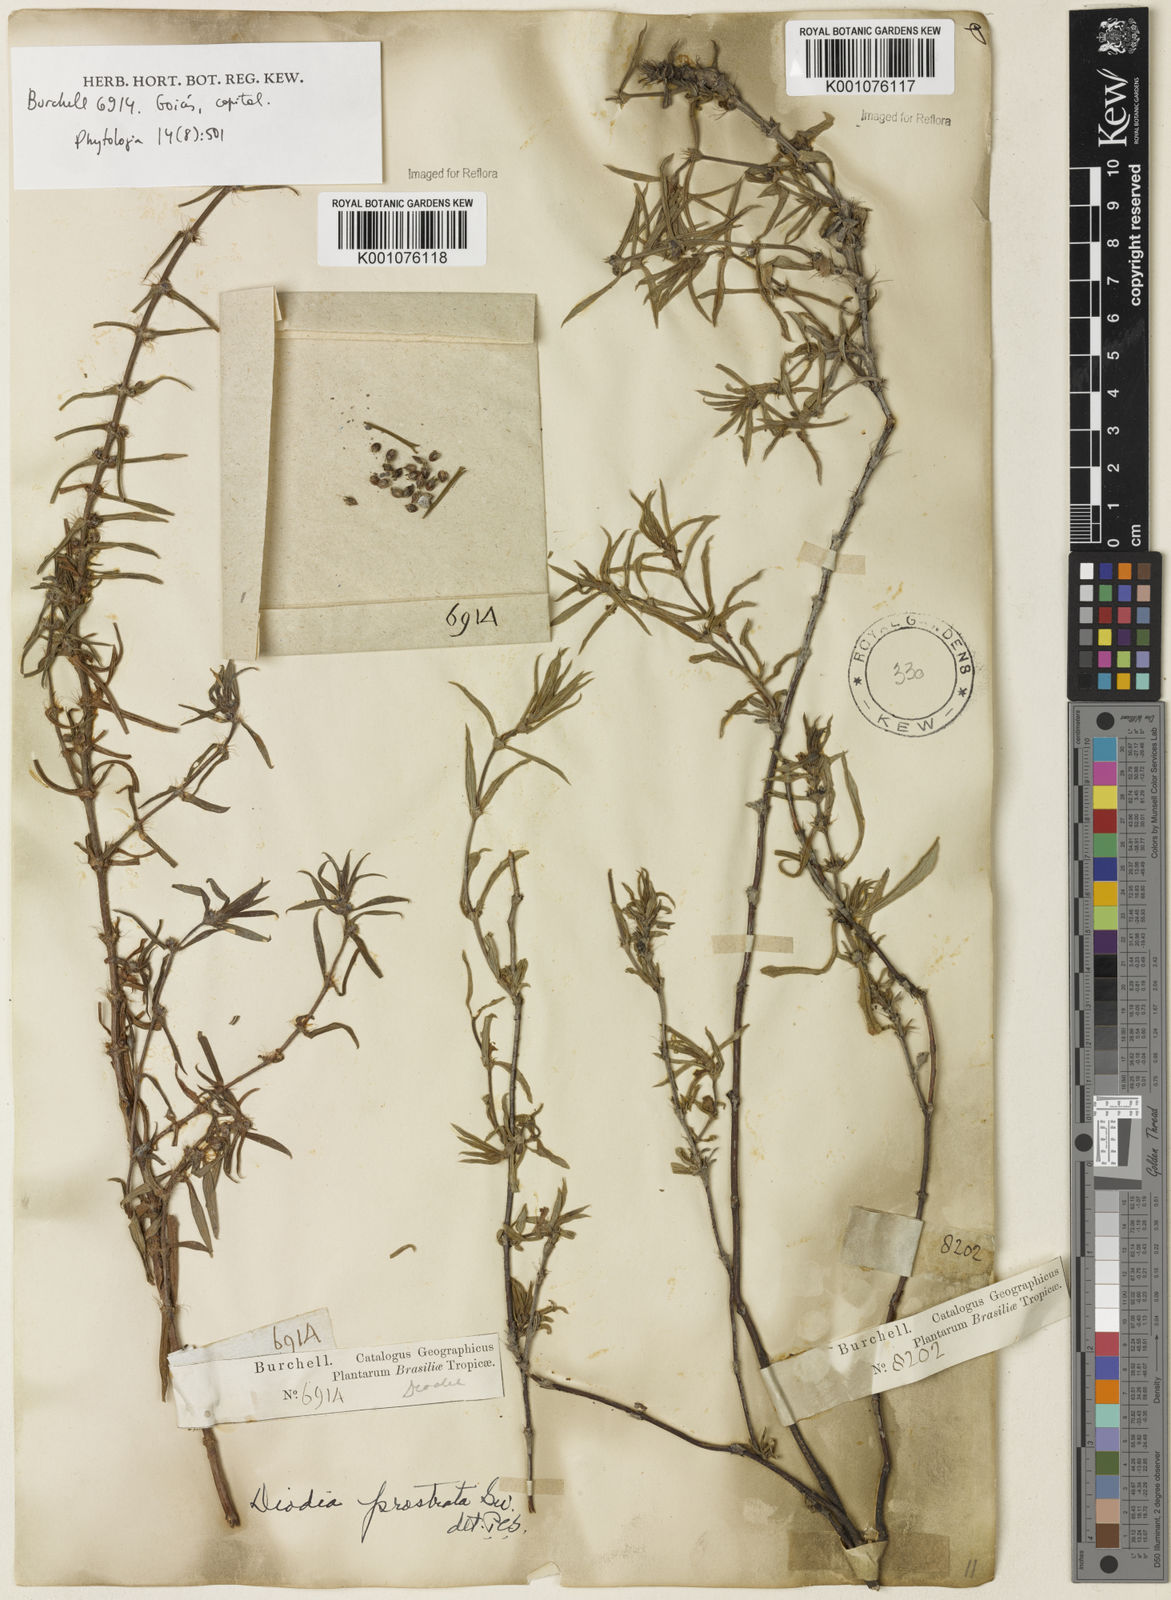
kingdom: Plantae
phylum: Tracheophyta
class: Magnoliopsida
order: Gentianales
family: Rubiaceae
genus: Hexasepalum
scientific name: Hexasepalum teres
